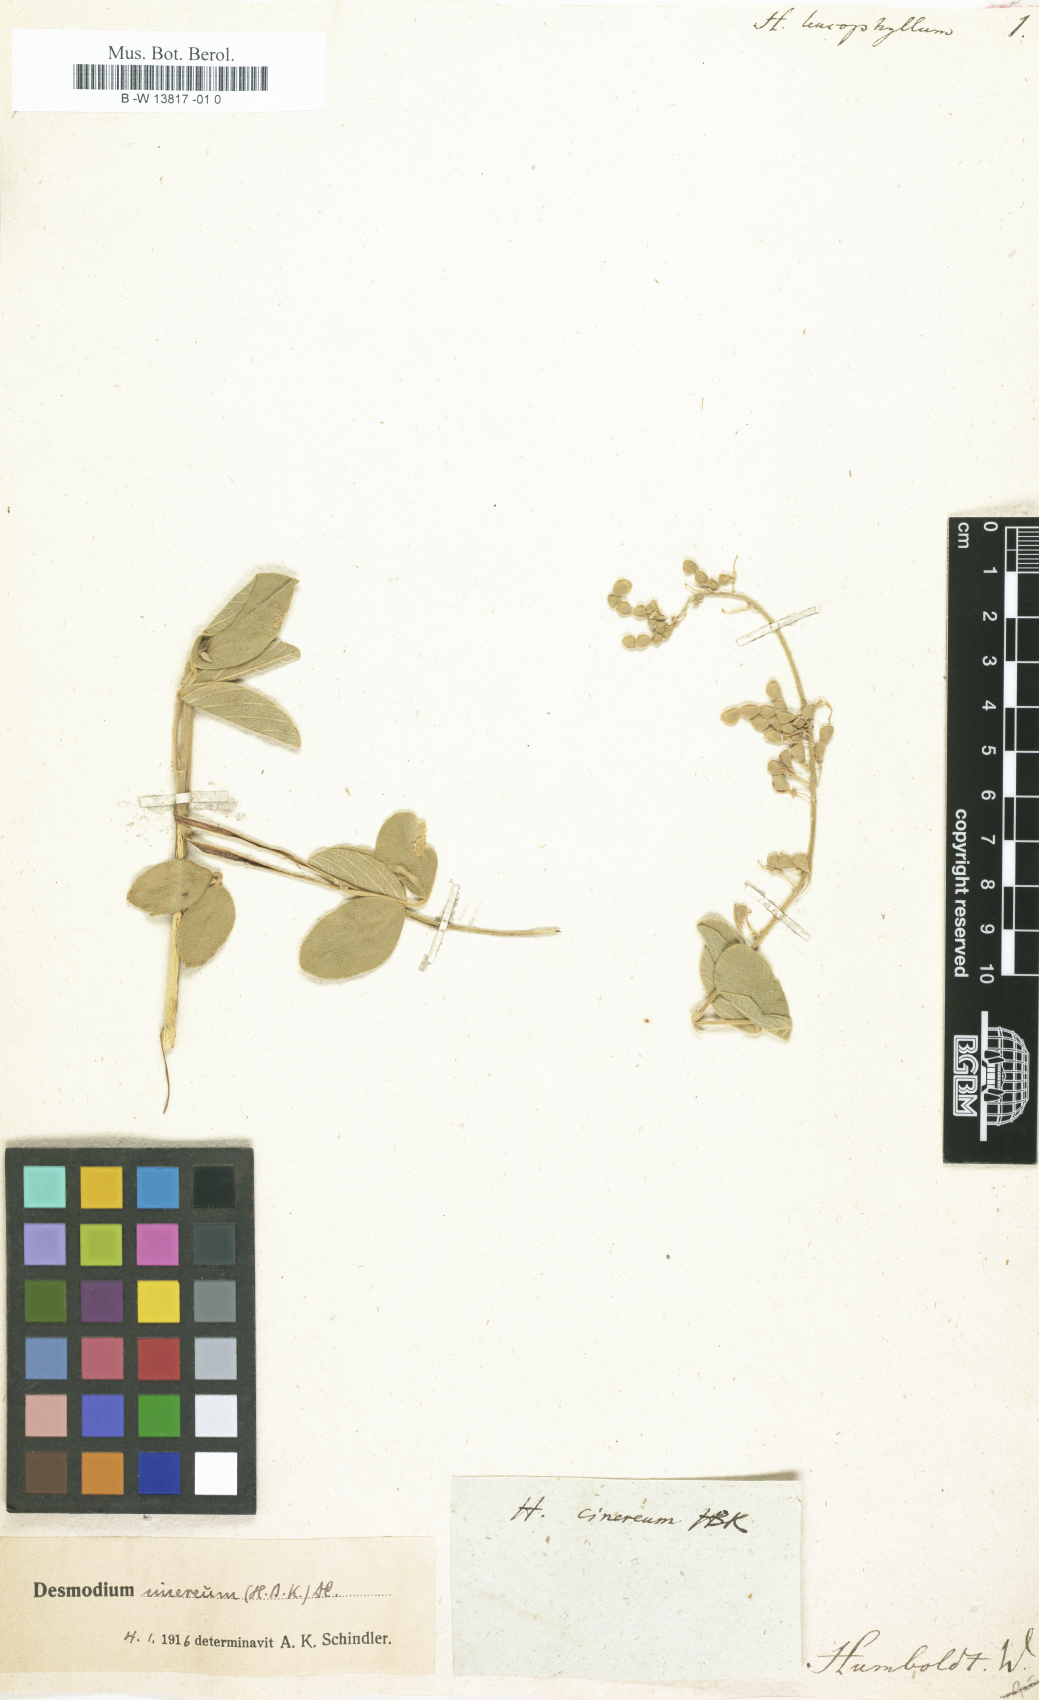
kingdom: Plantae
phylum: Tracheophyta
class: Magnoliopsida
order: Fabales
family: Fabaceae
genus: Hedysarum
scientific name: Hedysarum leucophyllum
